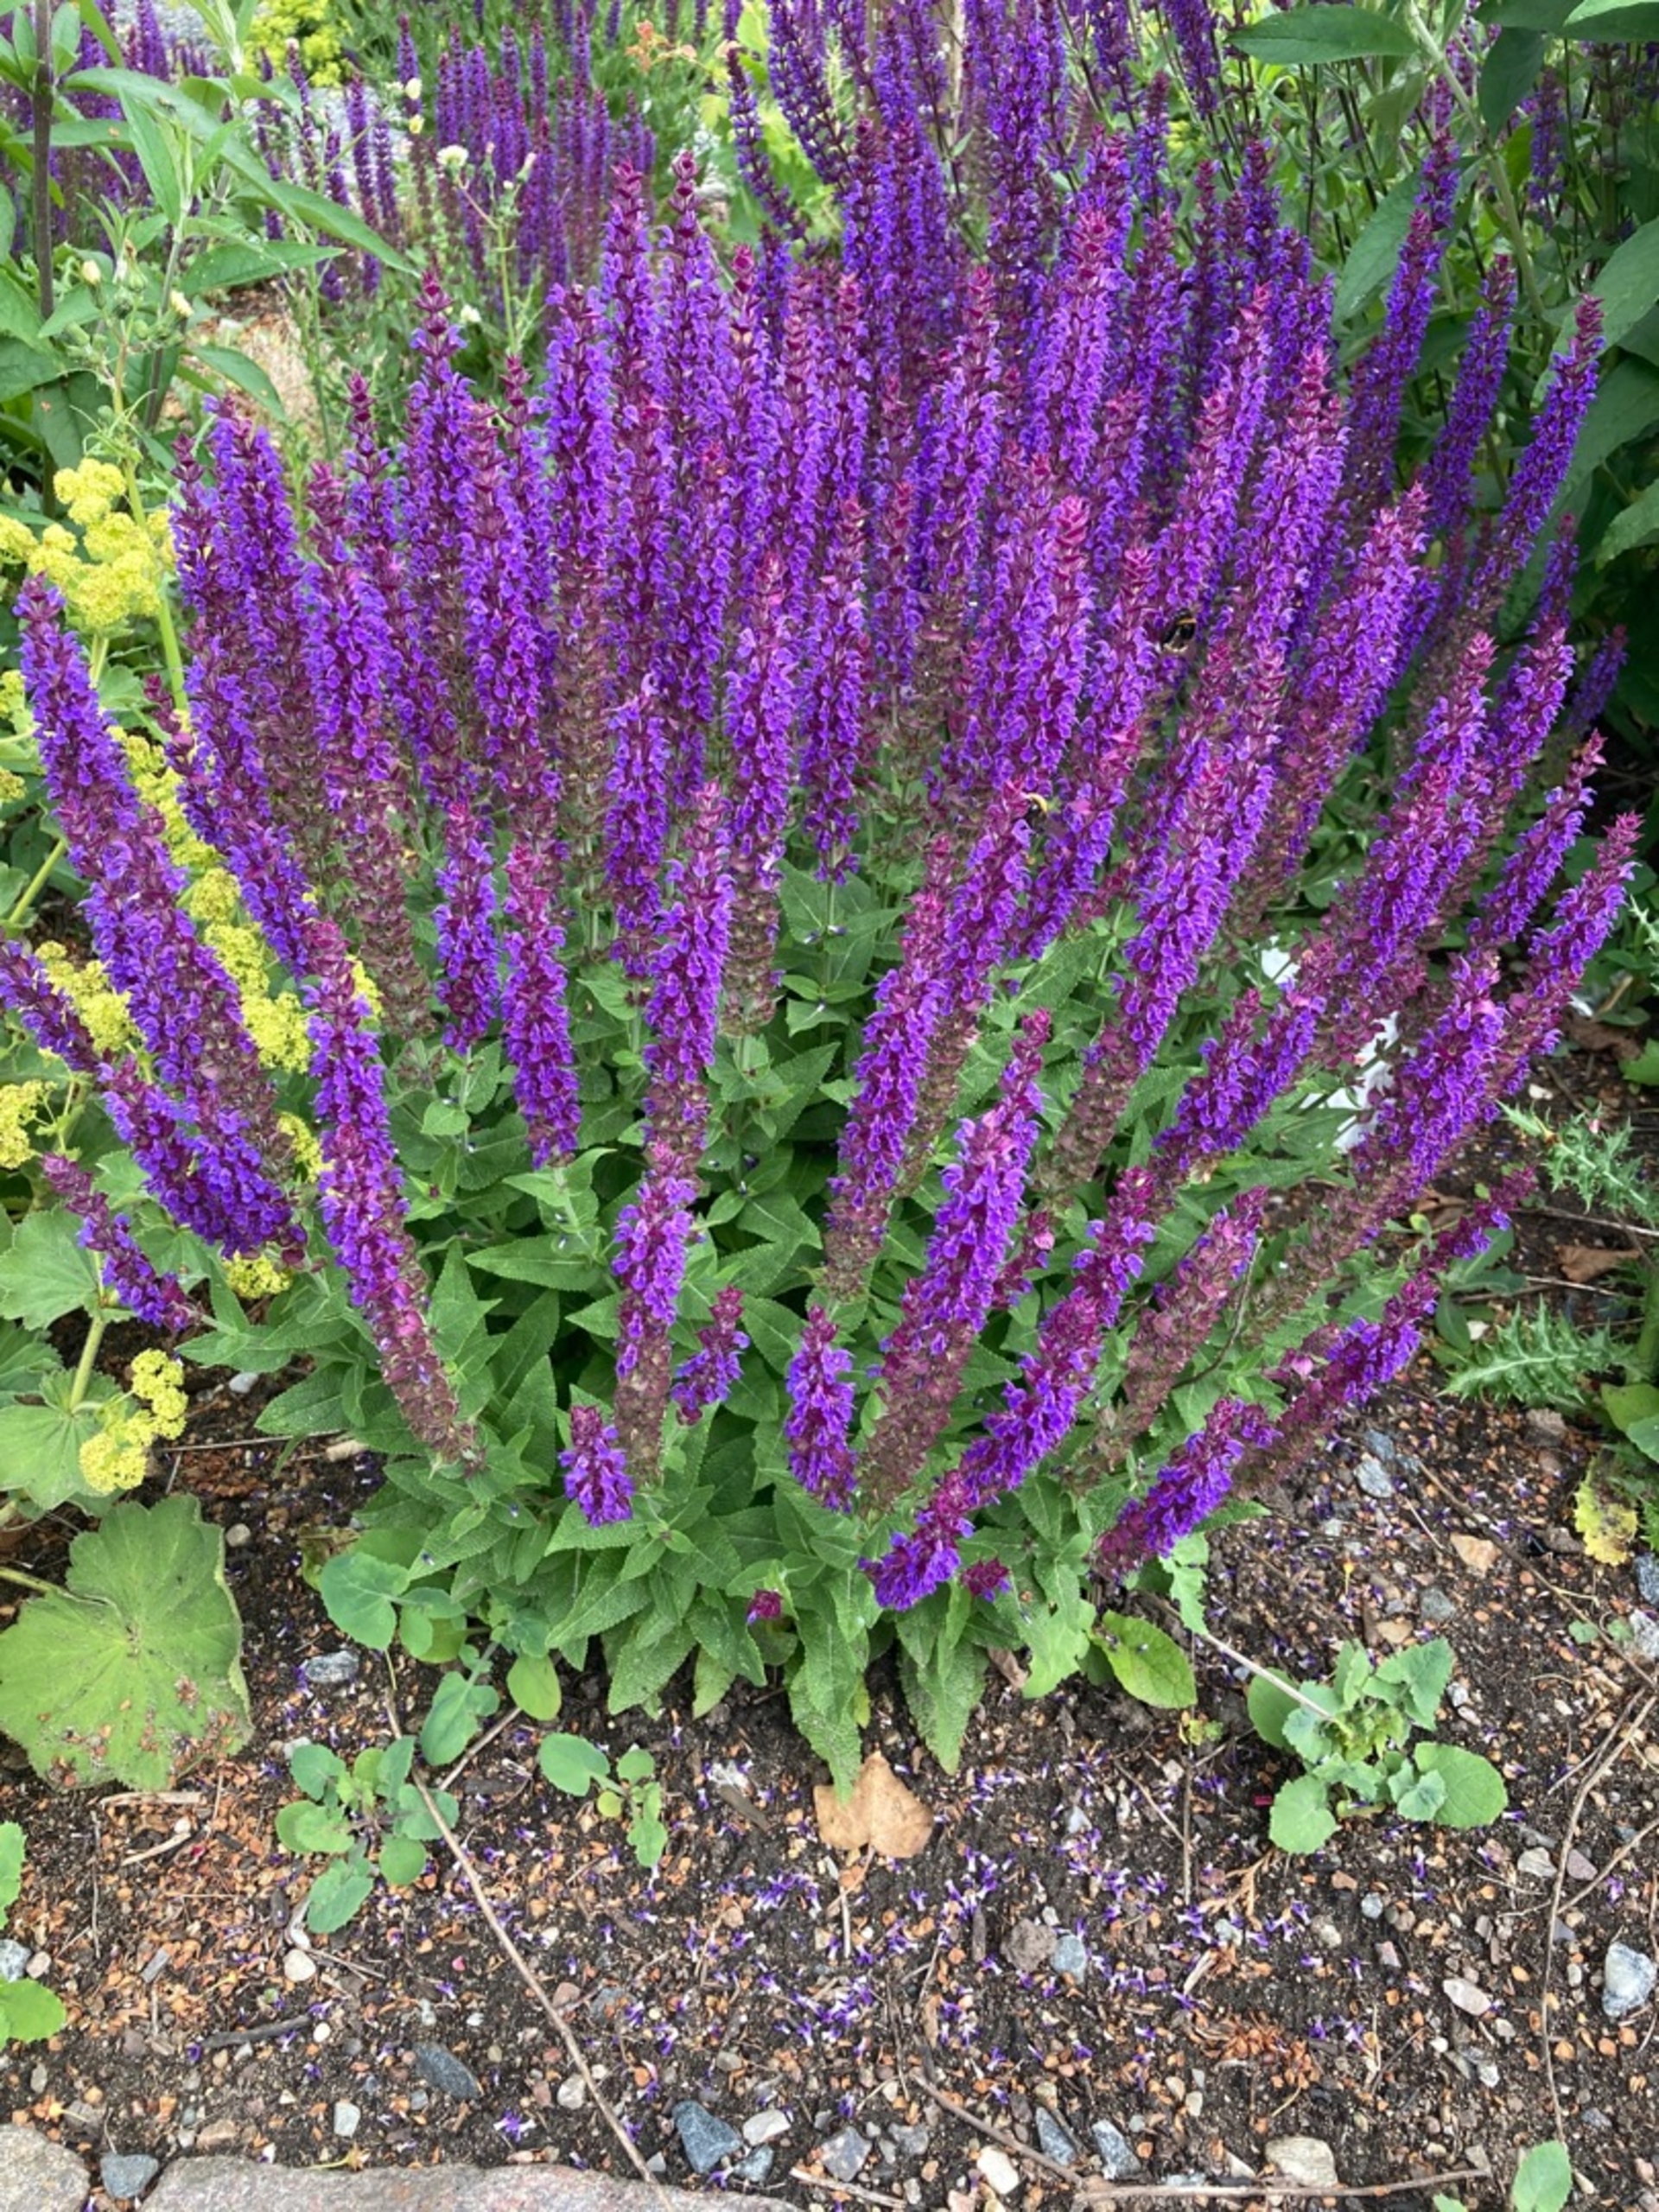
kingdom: Plantae
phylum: Tracheophyta
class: Magnoliopsida
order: Lamiales
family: Lamiaceae
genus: Salvia
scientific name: Salvia nemorosa
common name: Småblomstret salvie
